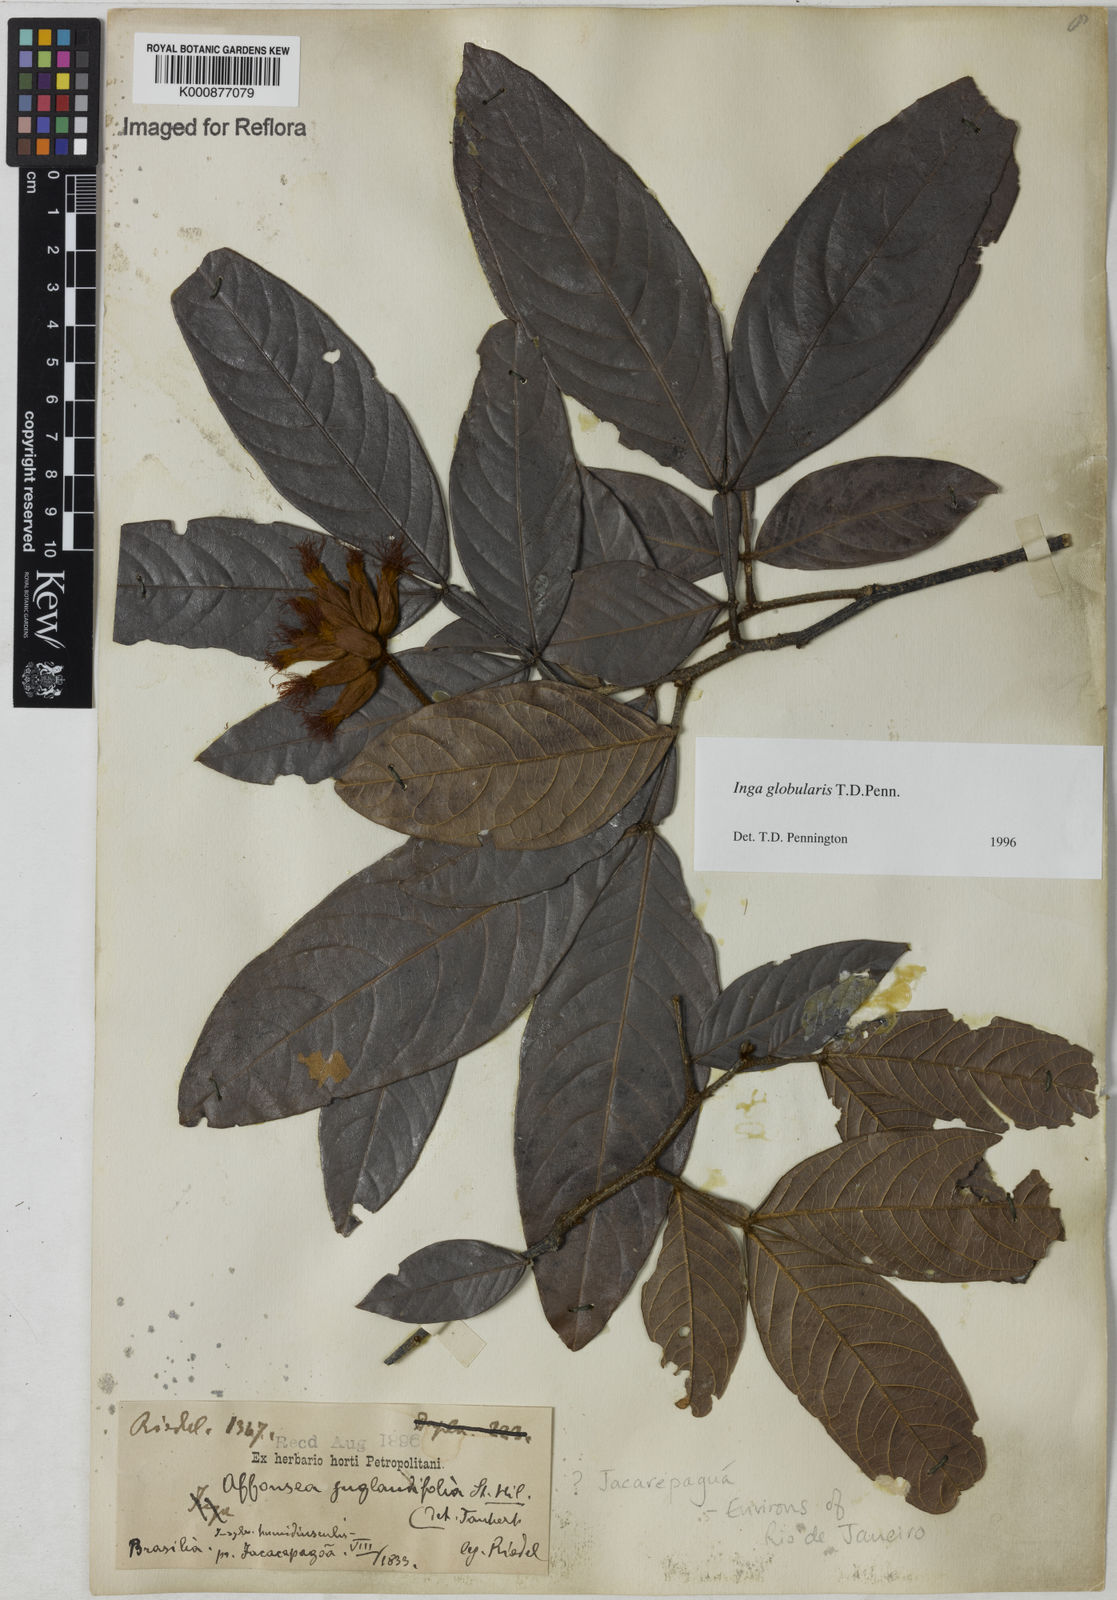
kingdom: Plantae
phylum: Tracheophyta
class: Magnoliopsida
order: Fabales
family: Fabaceae
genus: Inga
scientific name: Inga globularis
